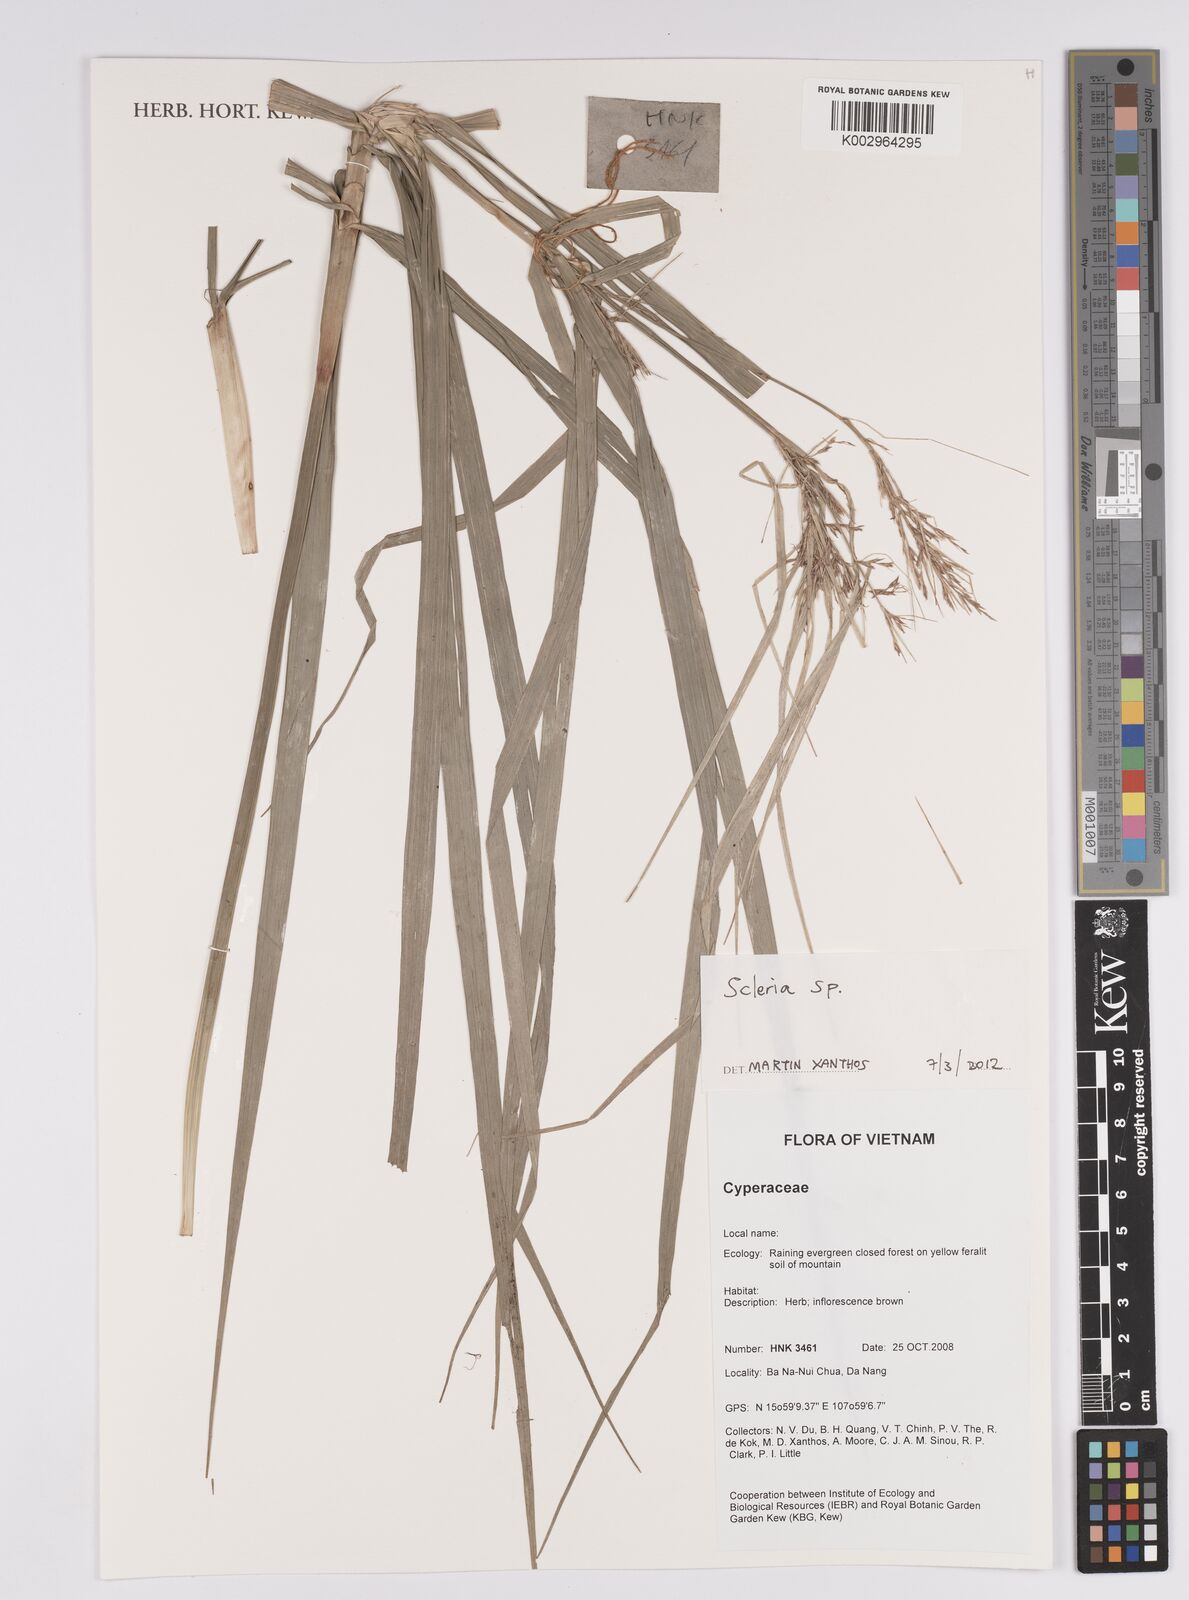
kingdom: Plantae
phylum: Tracheophyta
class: Liliopsida
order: Poales
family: Cyperaceae
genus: Scleria
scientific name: Scleria
